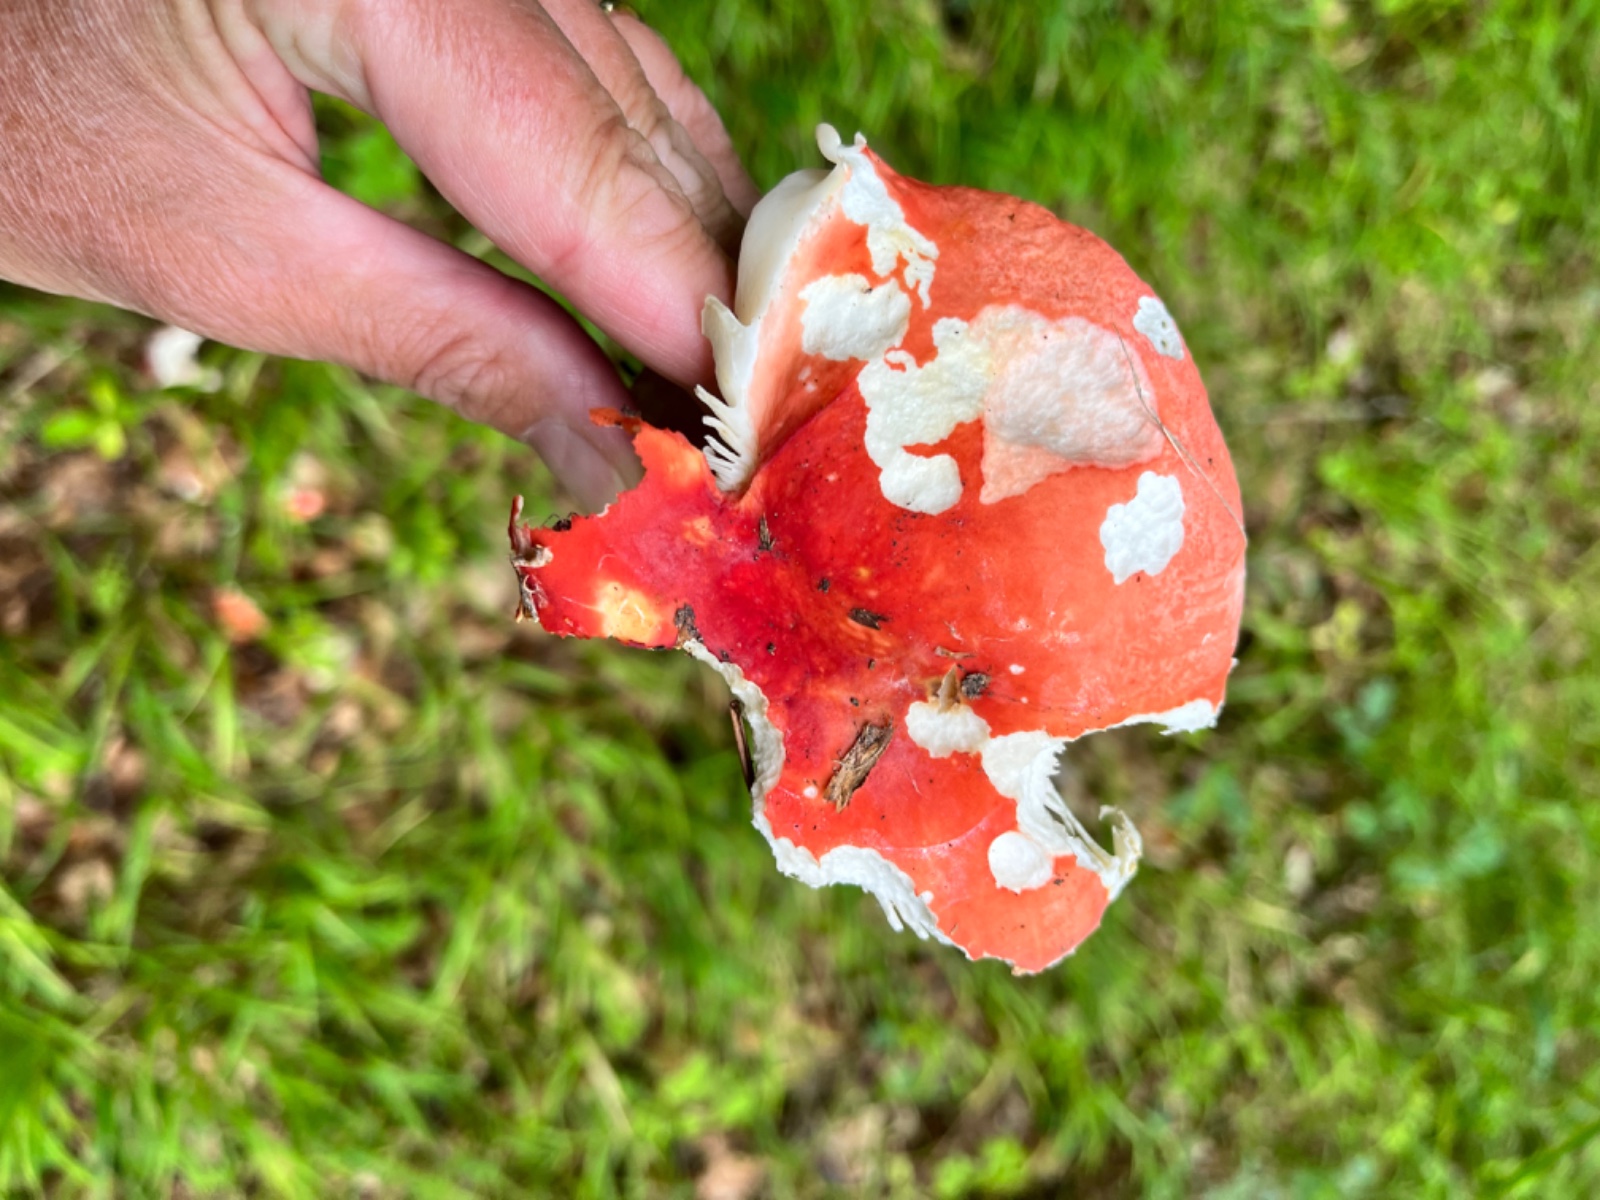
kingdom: Fungi
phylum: Basidiomycota
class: Agaricomycetes
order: Russulales
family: Russulaceae
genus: Russula
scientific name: Russula rosea
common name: fastkødet skørhat
